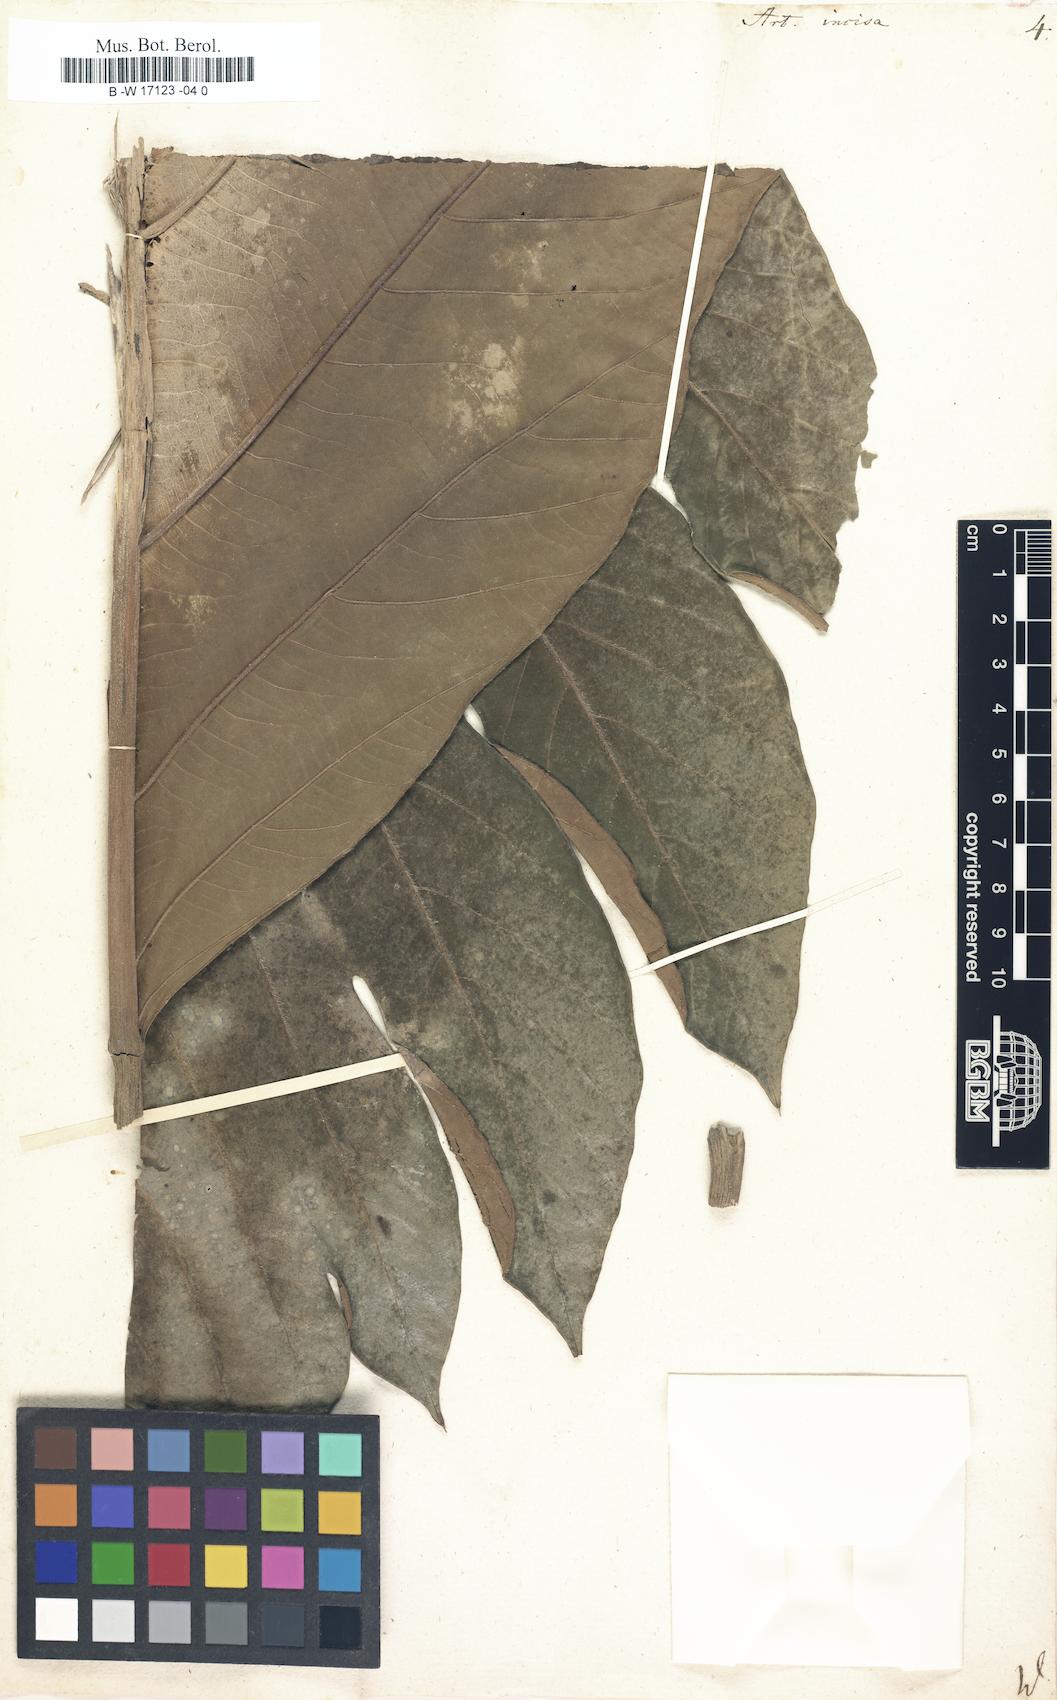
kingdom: Plantae
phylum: Tracheophyta
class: Magnoliopsida
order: Rosales
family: Moraceae
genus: Artocarpus
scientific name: Artocarpus altilis
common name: Breadfruit
